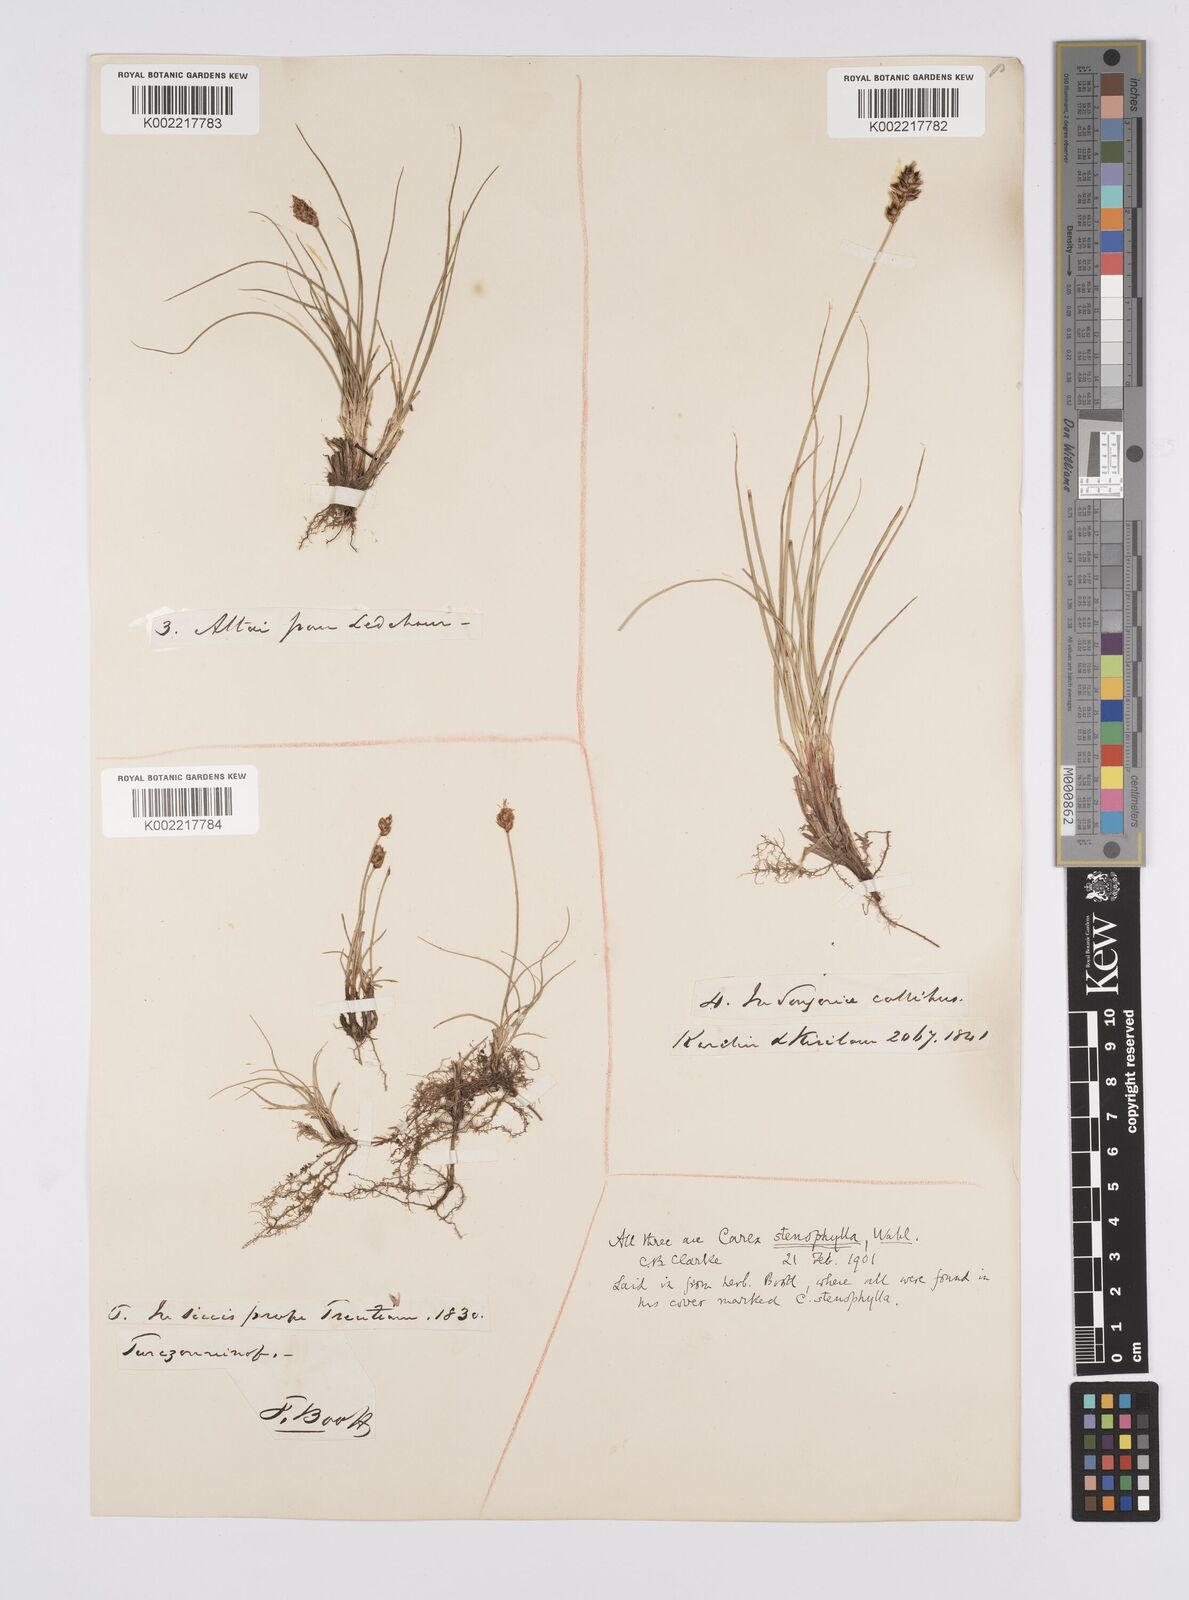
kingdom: Plantae
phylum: Tracheophyta
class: Liliopsida
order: Poales
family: Cyperaceae
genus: Carex
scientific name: Carex stenophylla
